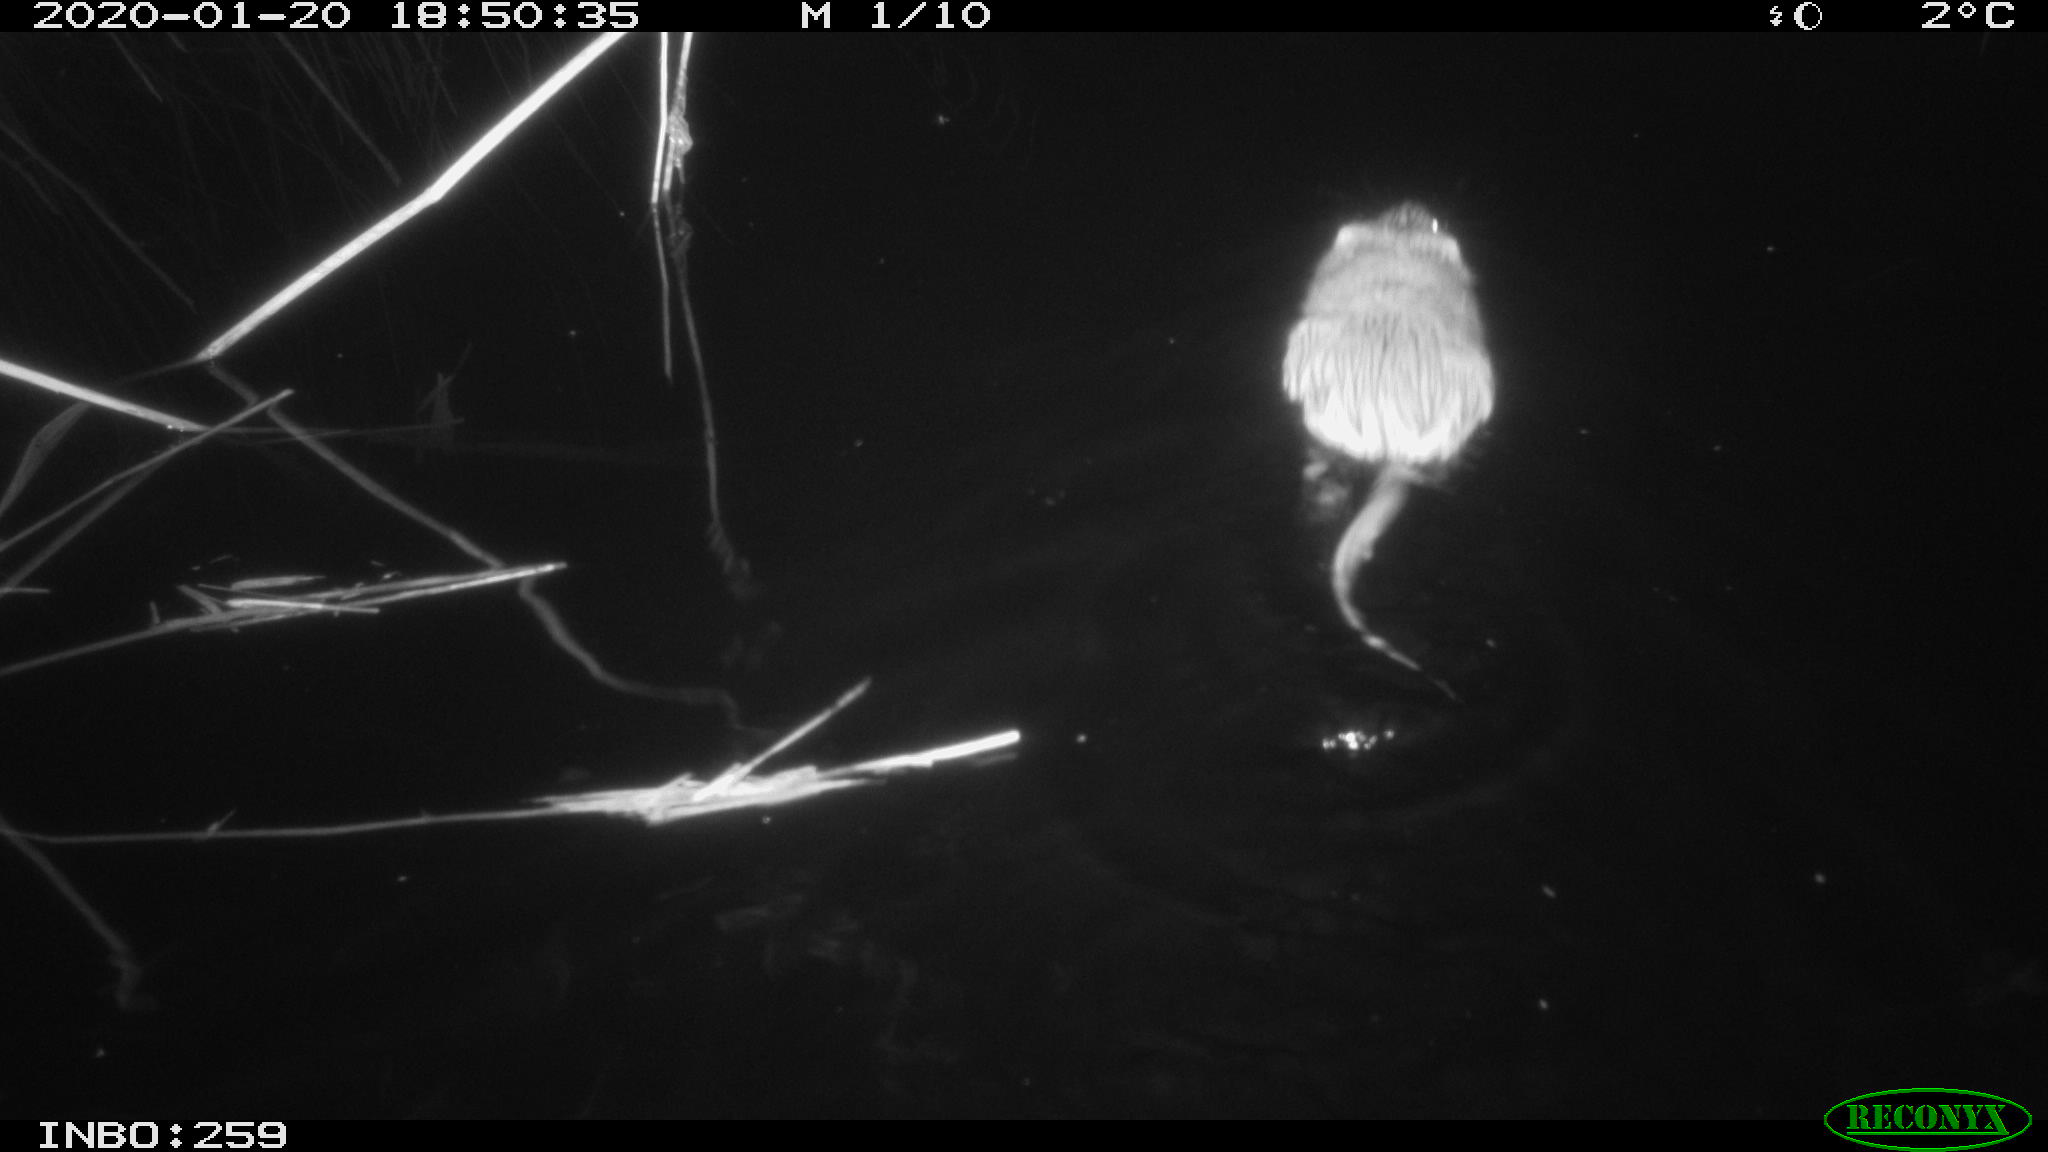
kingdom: Animalia
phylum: Chordata
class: Mammalia
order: Rodentia
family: Cricetidae
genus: Ondatra
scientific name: Ondatra zibethicus
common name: Muskrat
